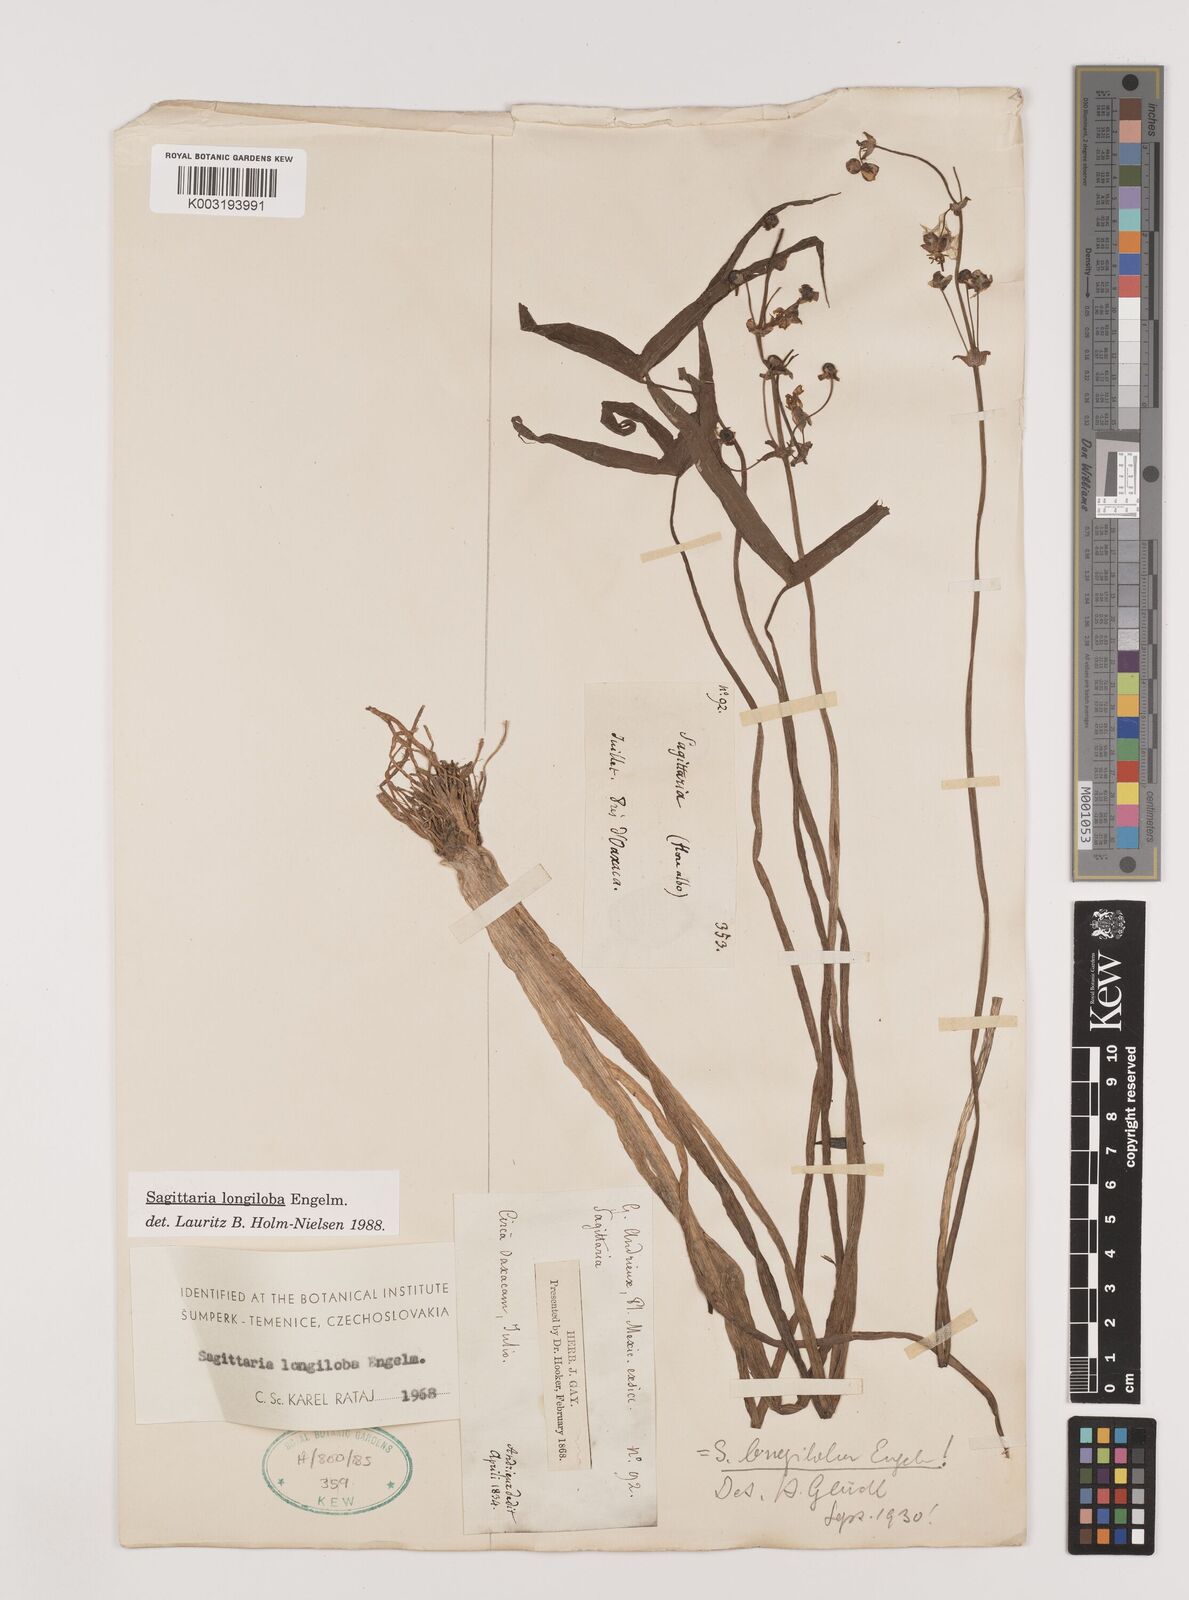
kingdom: Plantae
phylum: Tracheophyta
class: Liliopsida
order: Alismatales
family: Alismataceae
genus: Sagittaria
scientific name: Sagittaria longiloba
